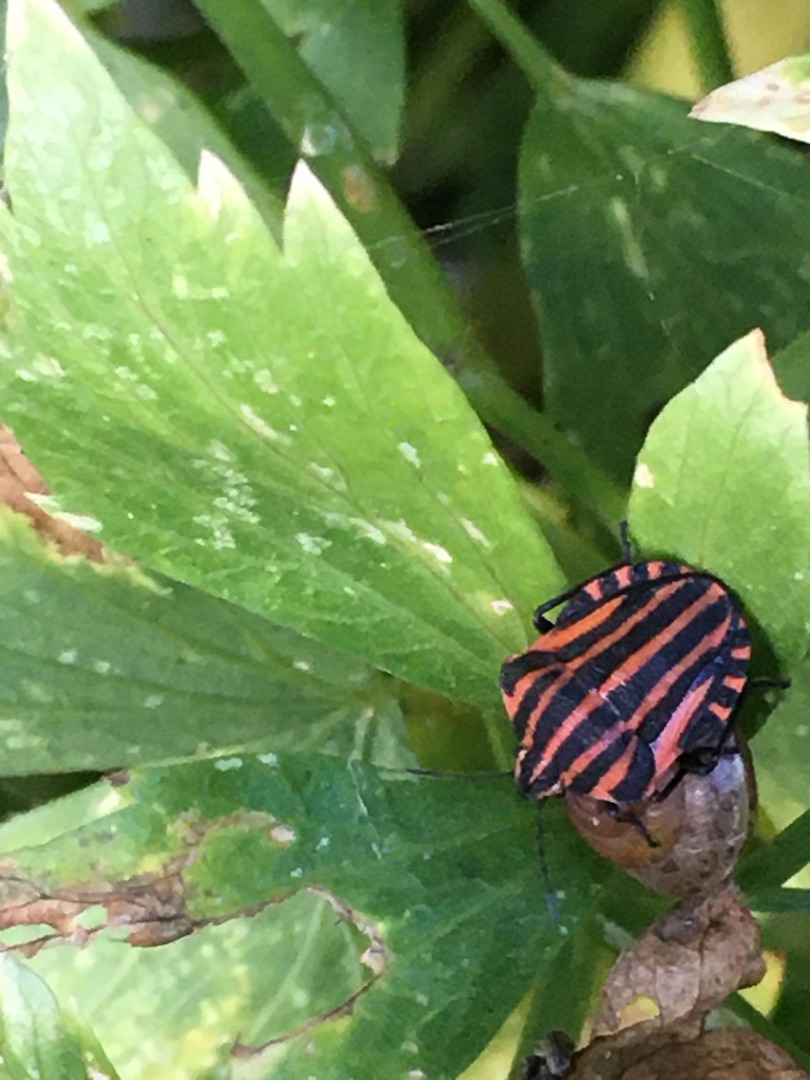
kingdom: Animalia
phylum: Arthropoda
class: Insecta
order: Hemiptera
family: Pentatomidae
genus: Graphosoma
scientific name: Graphosoma italicum
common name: Stribetæge
